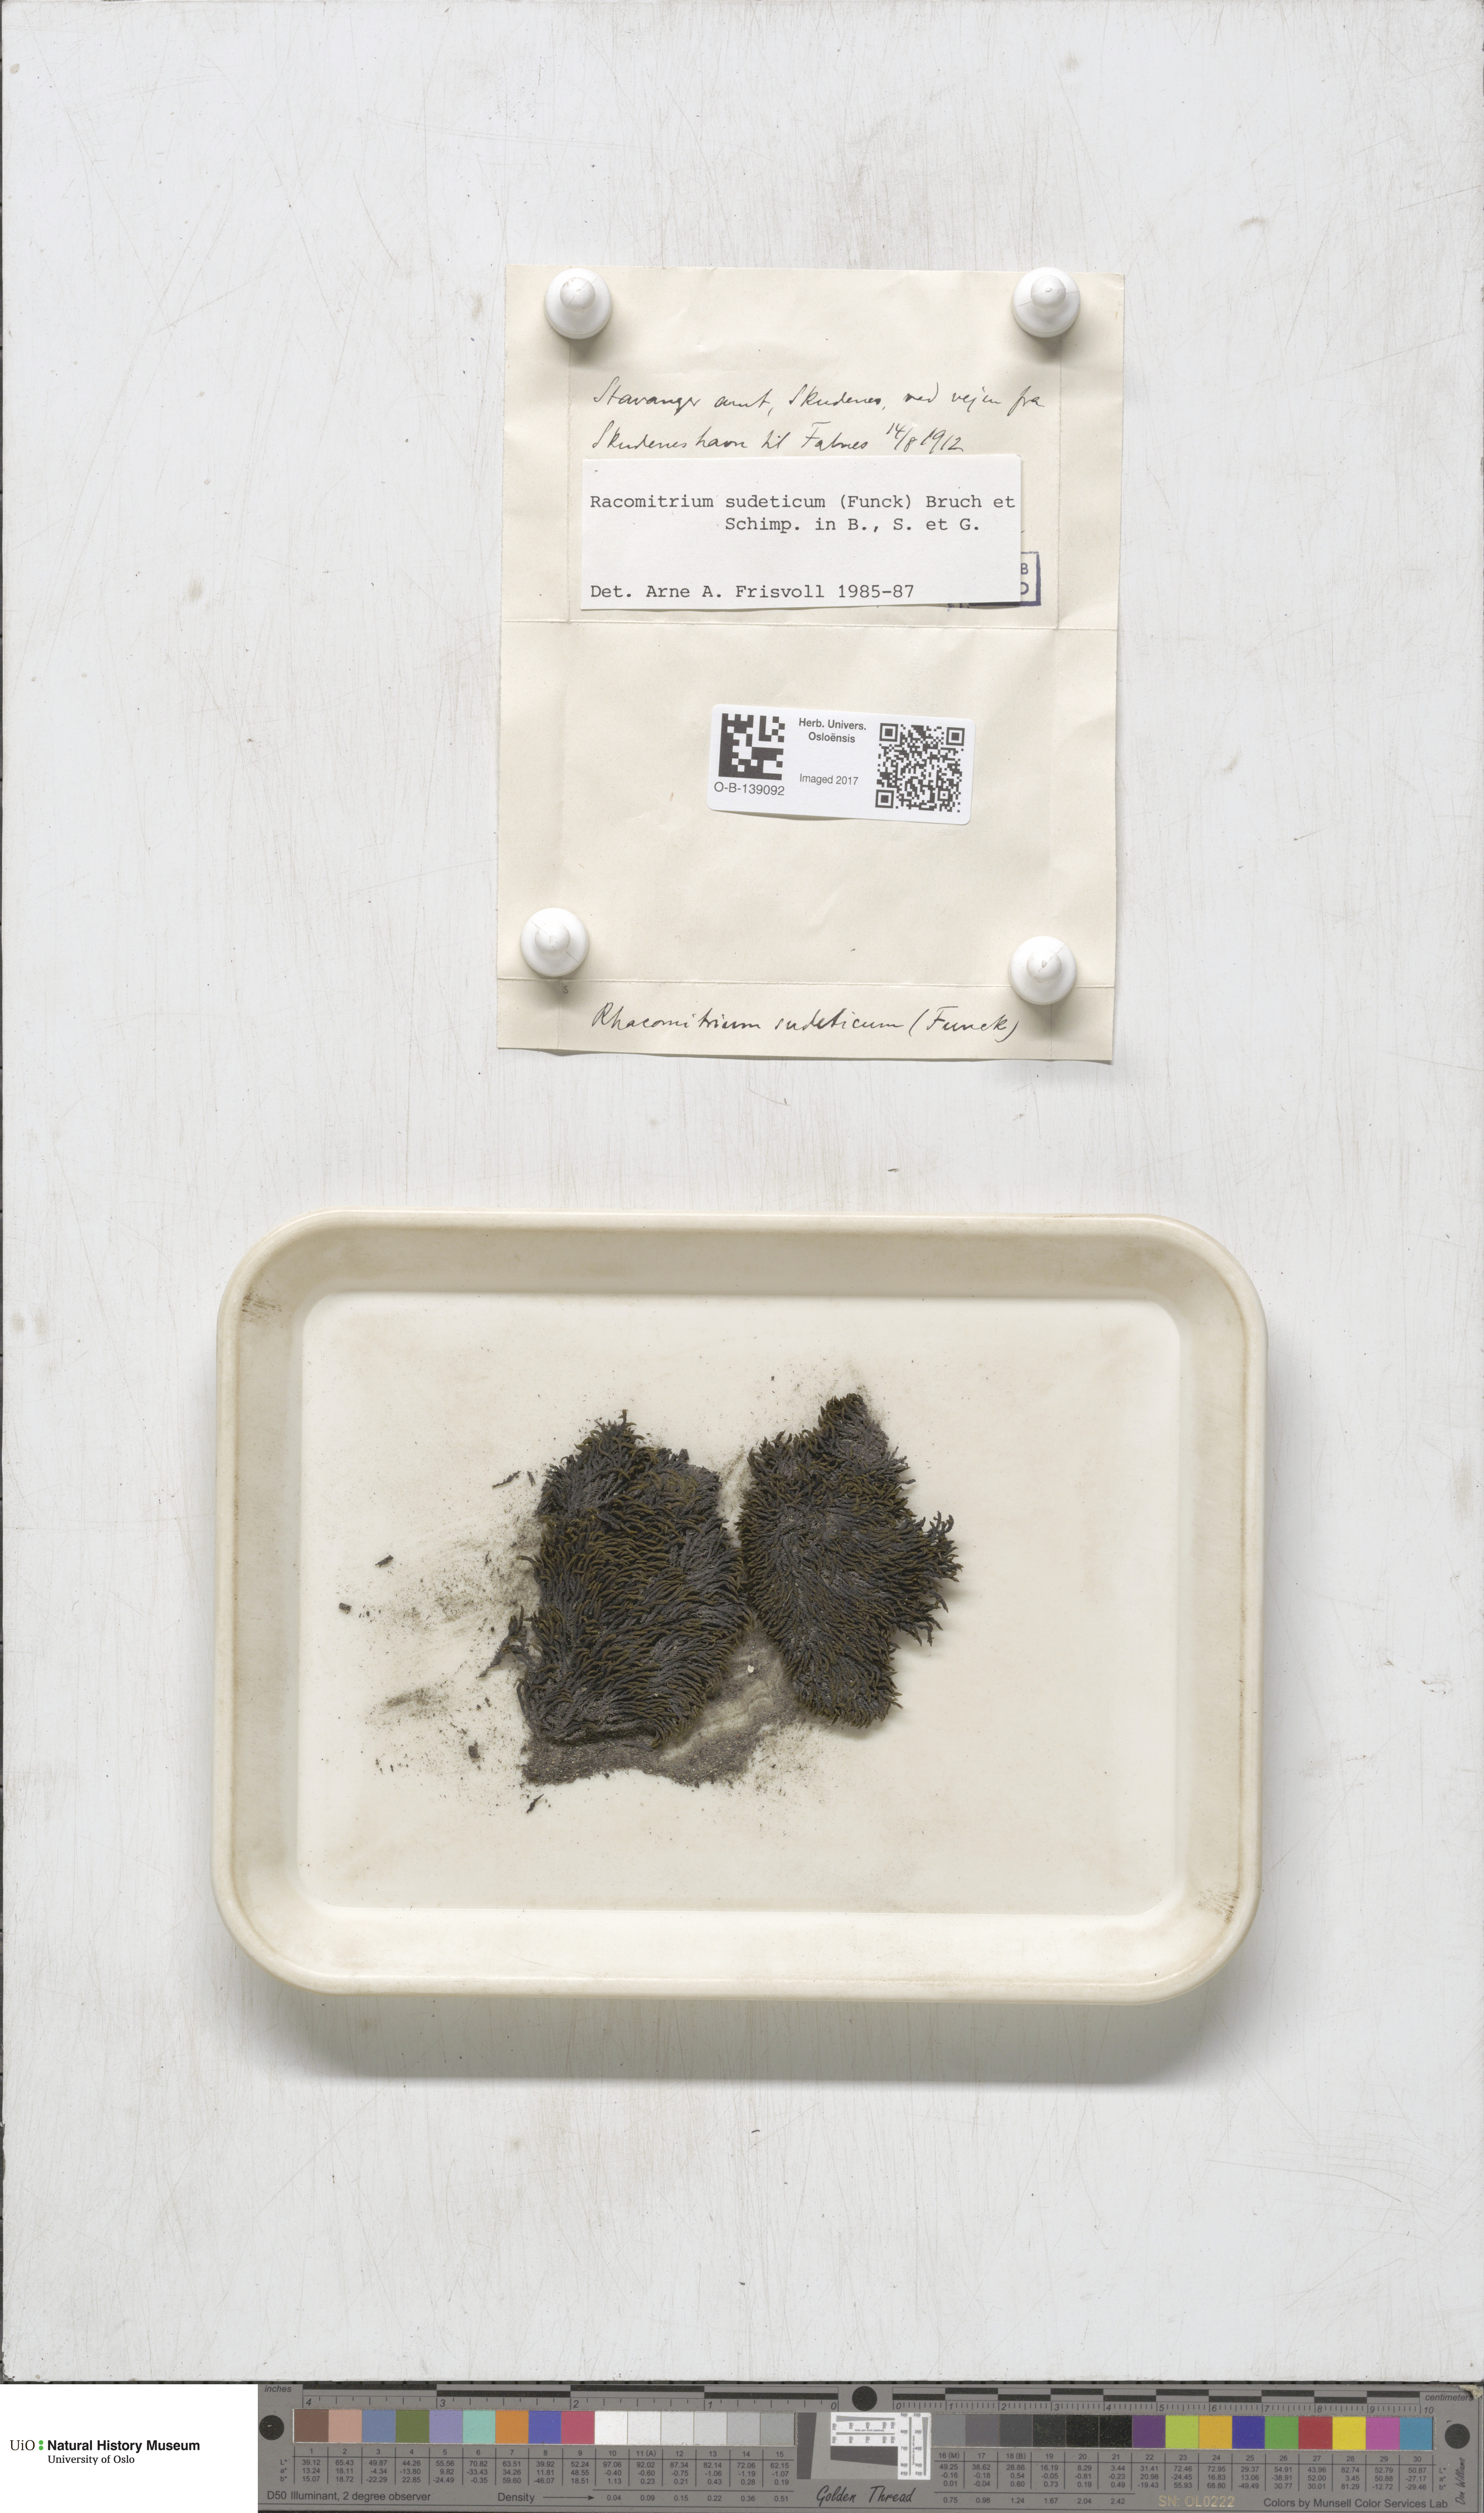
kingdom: Plantae
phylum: Bryophyta
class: Bryopsida
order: Grimmiales
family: Grimmiaceae
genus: Bucklandiella
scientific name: Bucklandiella sudetica
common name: Slender fringe-moss
